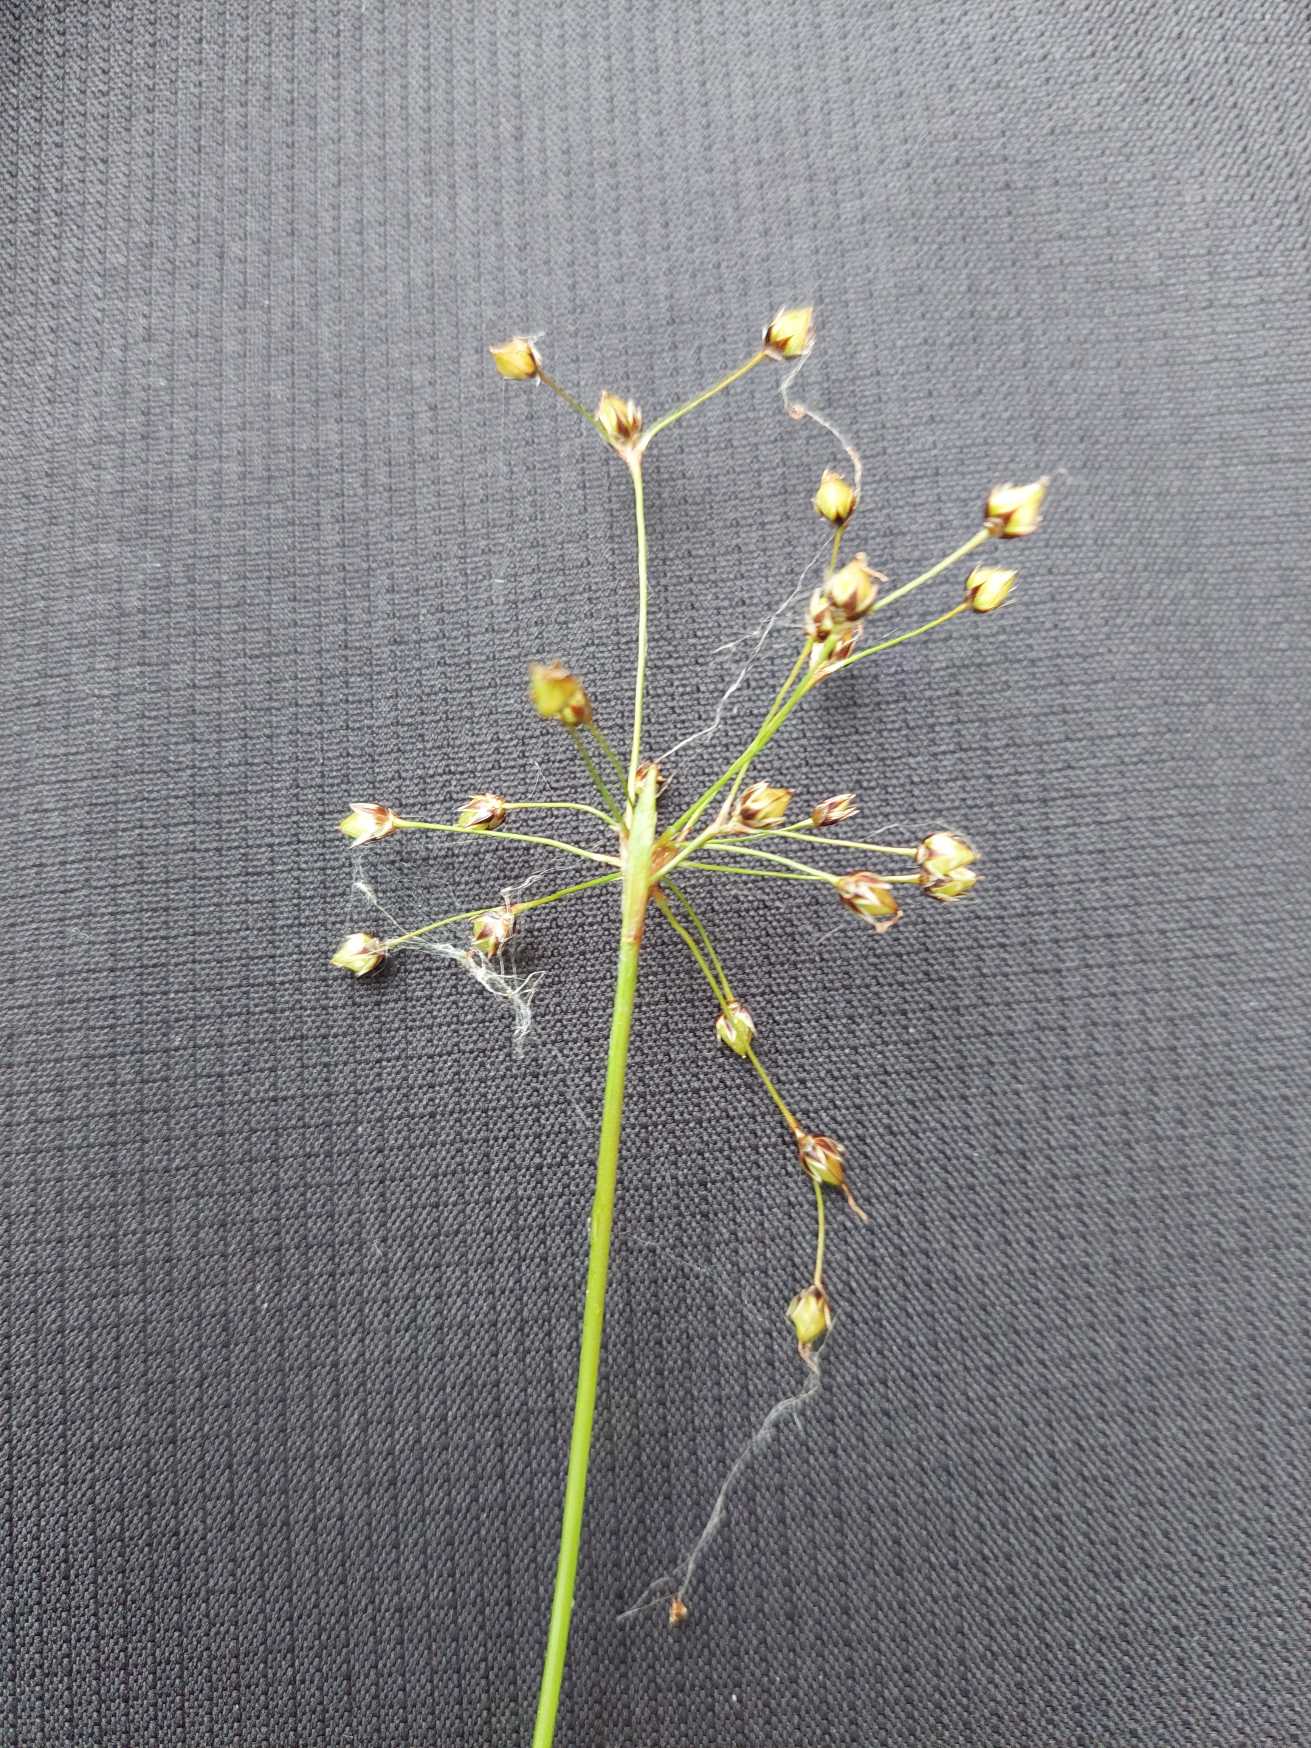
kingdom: Plantae
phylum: Tracheophyta
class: Liliopsida
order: Poales
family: Juncaceae
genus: Luzula
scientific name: Luzula pilosa
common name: Håret frytle
